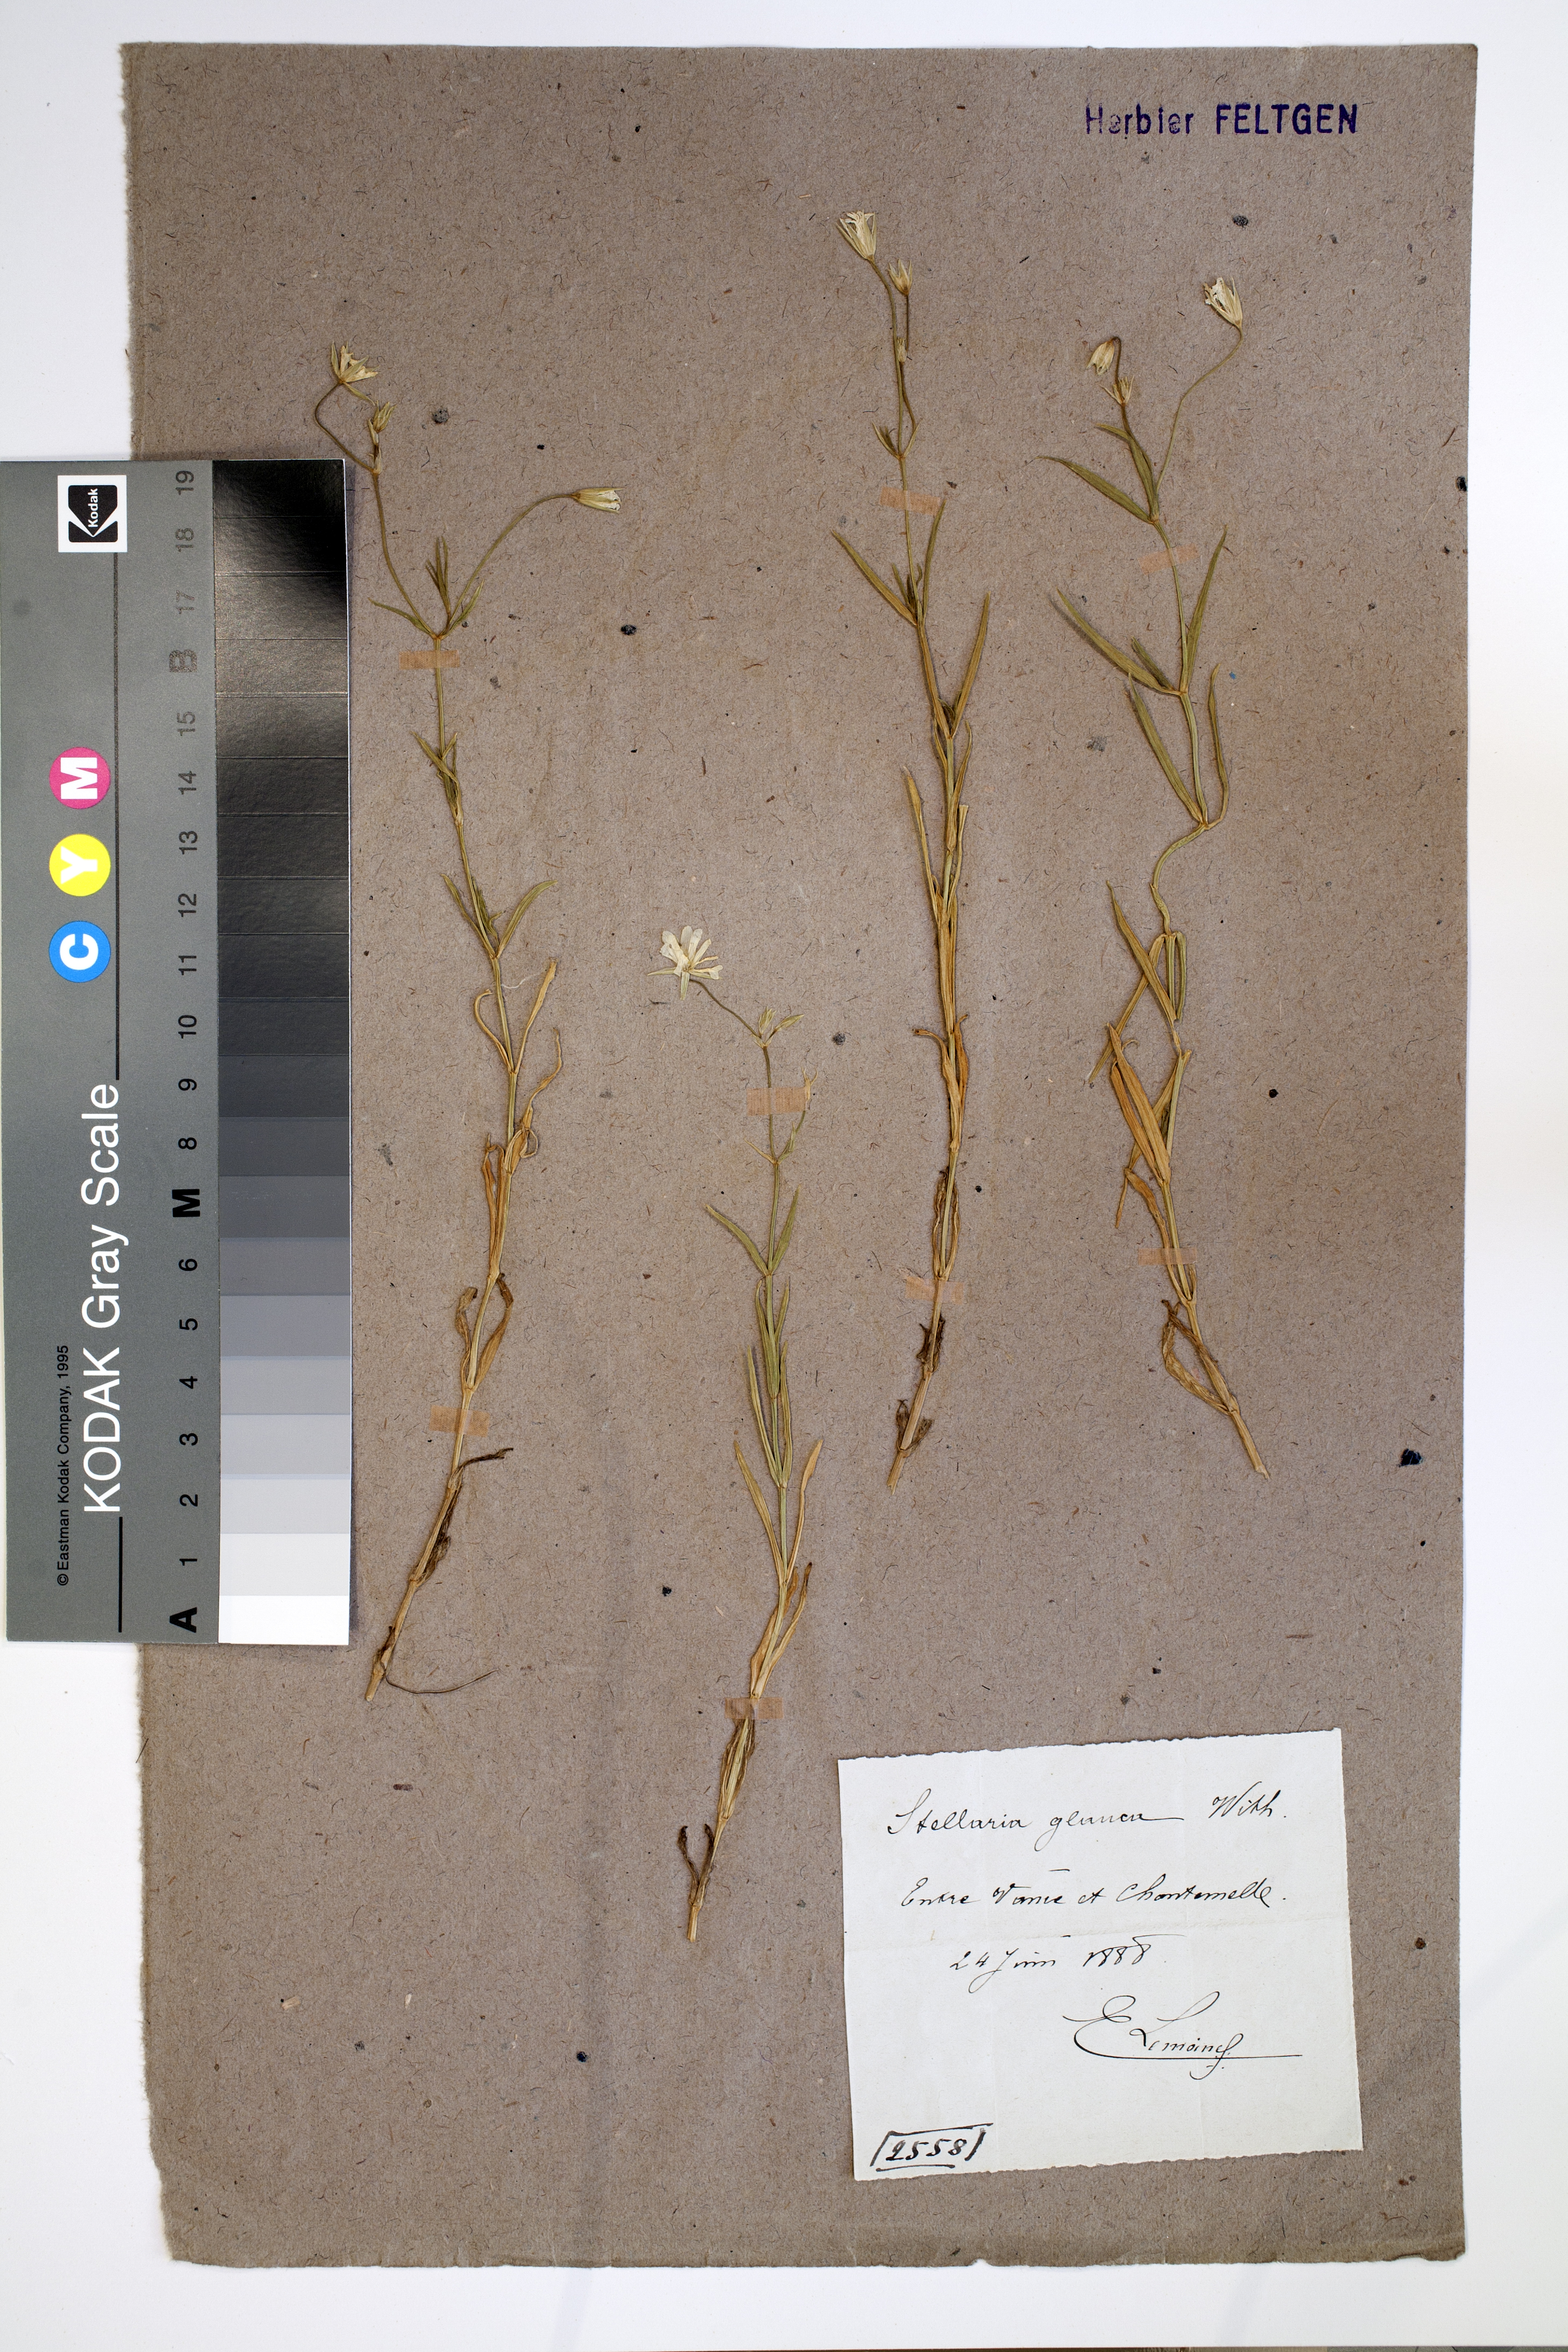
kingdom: Plantae
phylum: Tracheophyta
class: Magnoliopsida
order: Caryophyllales
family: Caryophyllaceae
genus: Stellaria
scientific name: Stellaria palustris
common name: Marsh stitchwort
